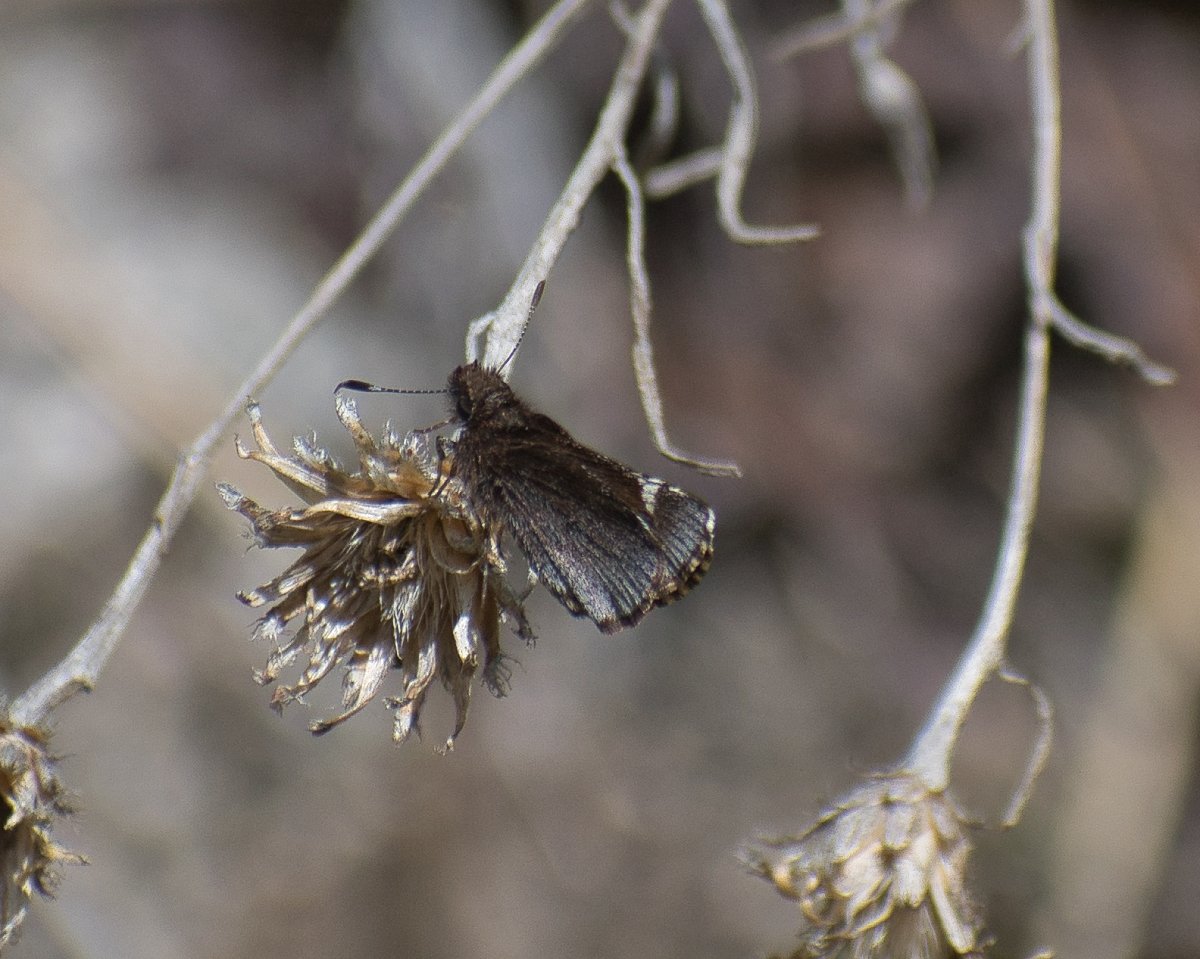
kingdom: Animalia
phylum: Arthropoda
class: Insecta
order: Lepidoptera
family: Hesperiidae
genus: Mastor
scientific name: Mastor vialis
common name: Common Roadside-Skipper
